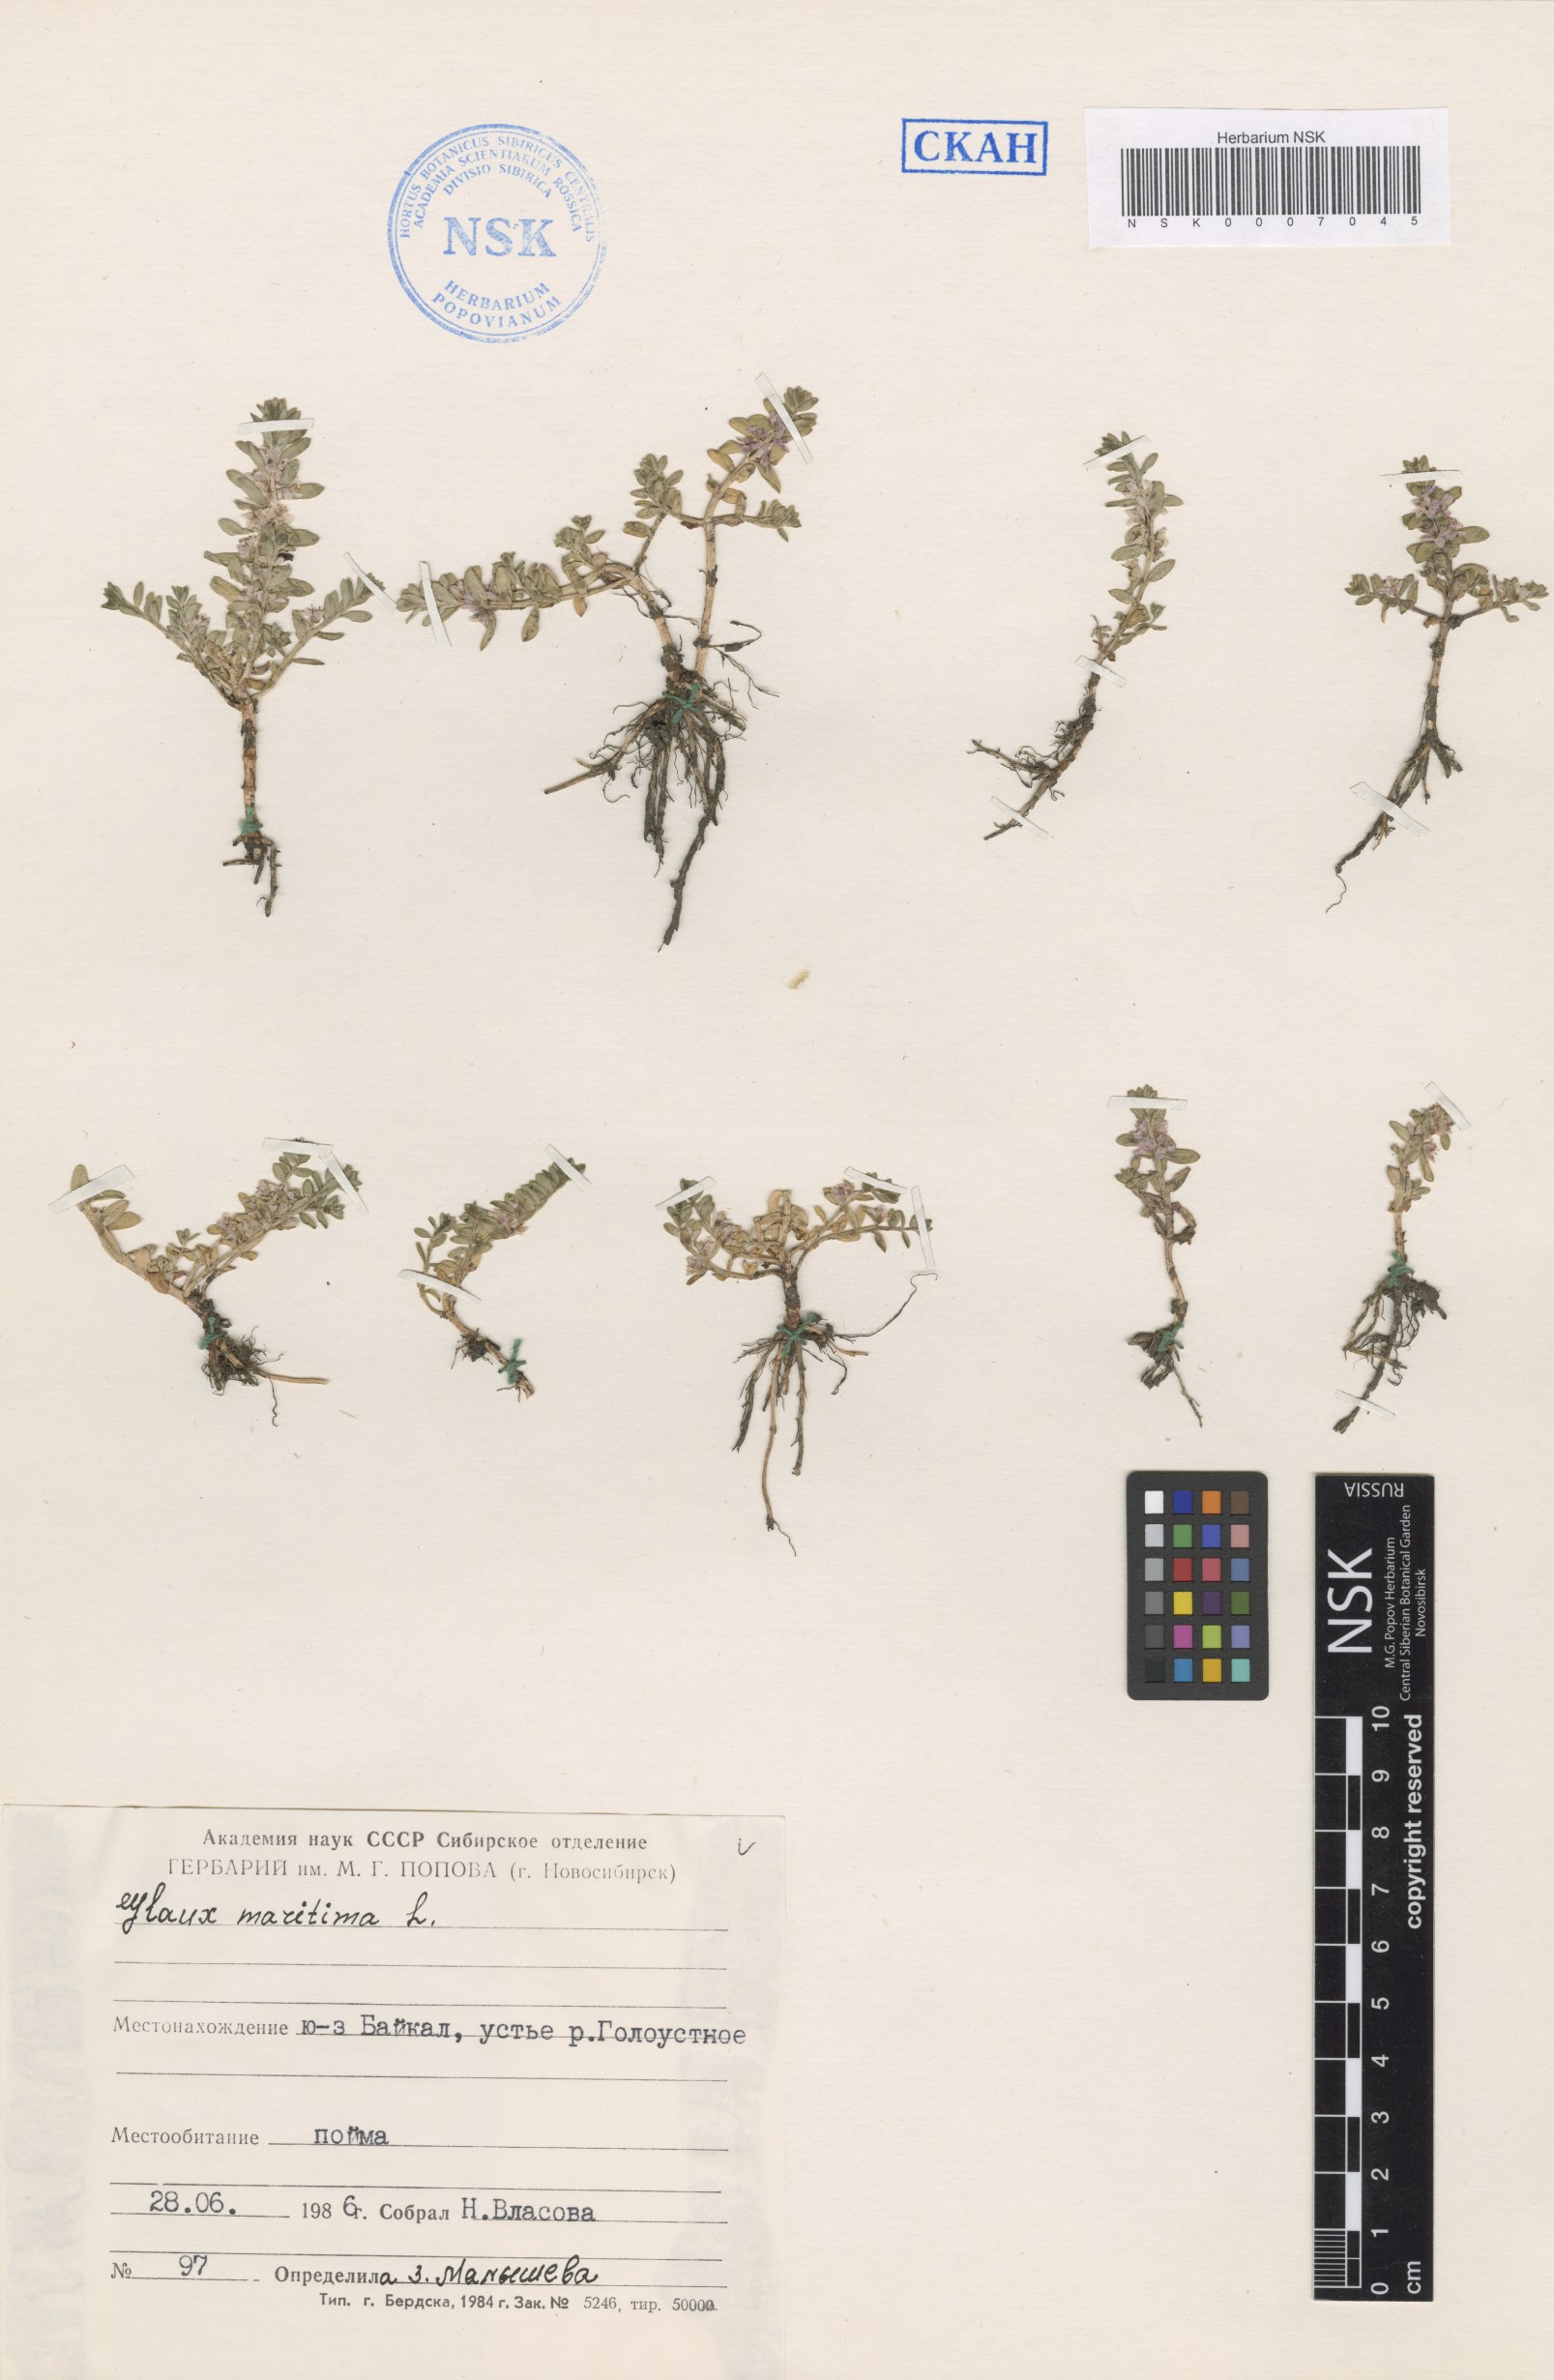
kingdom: Plantae
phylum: Tracheophyta
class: Magnoliopsida
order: Ericales
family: Primulaceae
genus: Lysimachia
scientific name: Lysimachia maritima
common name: Sea milkwort
